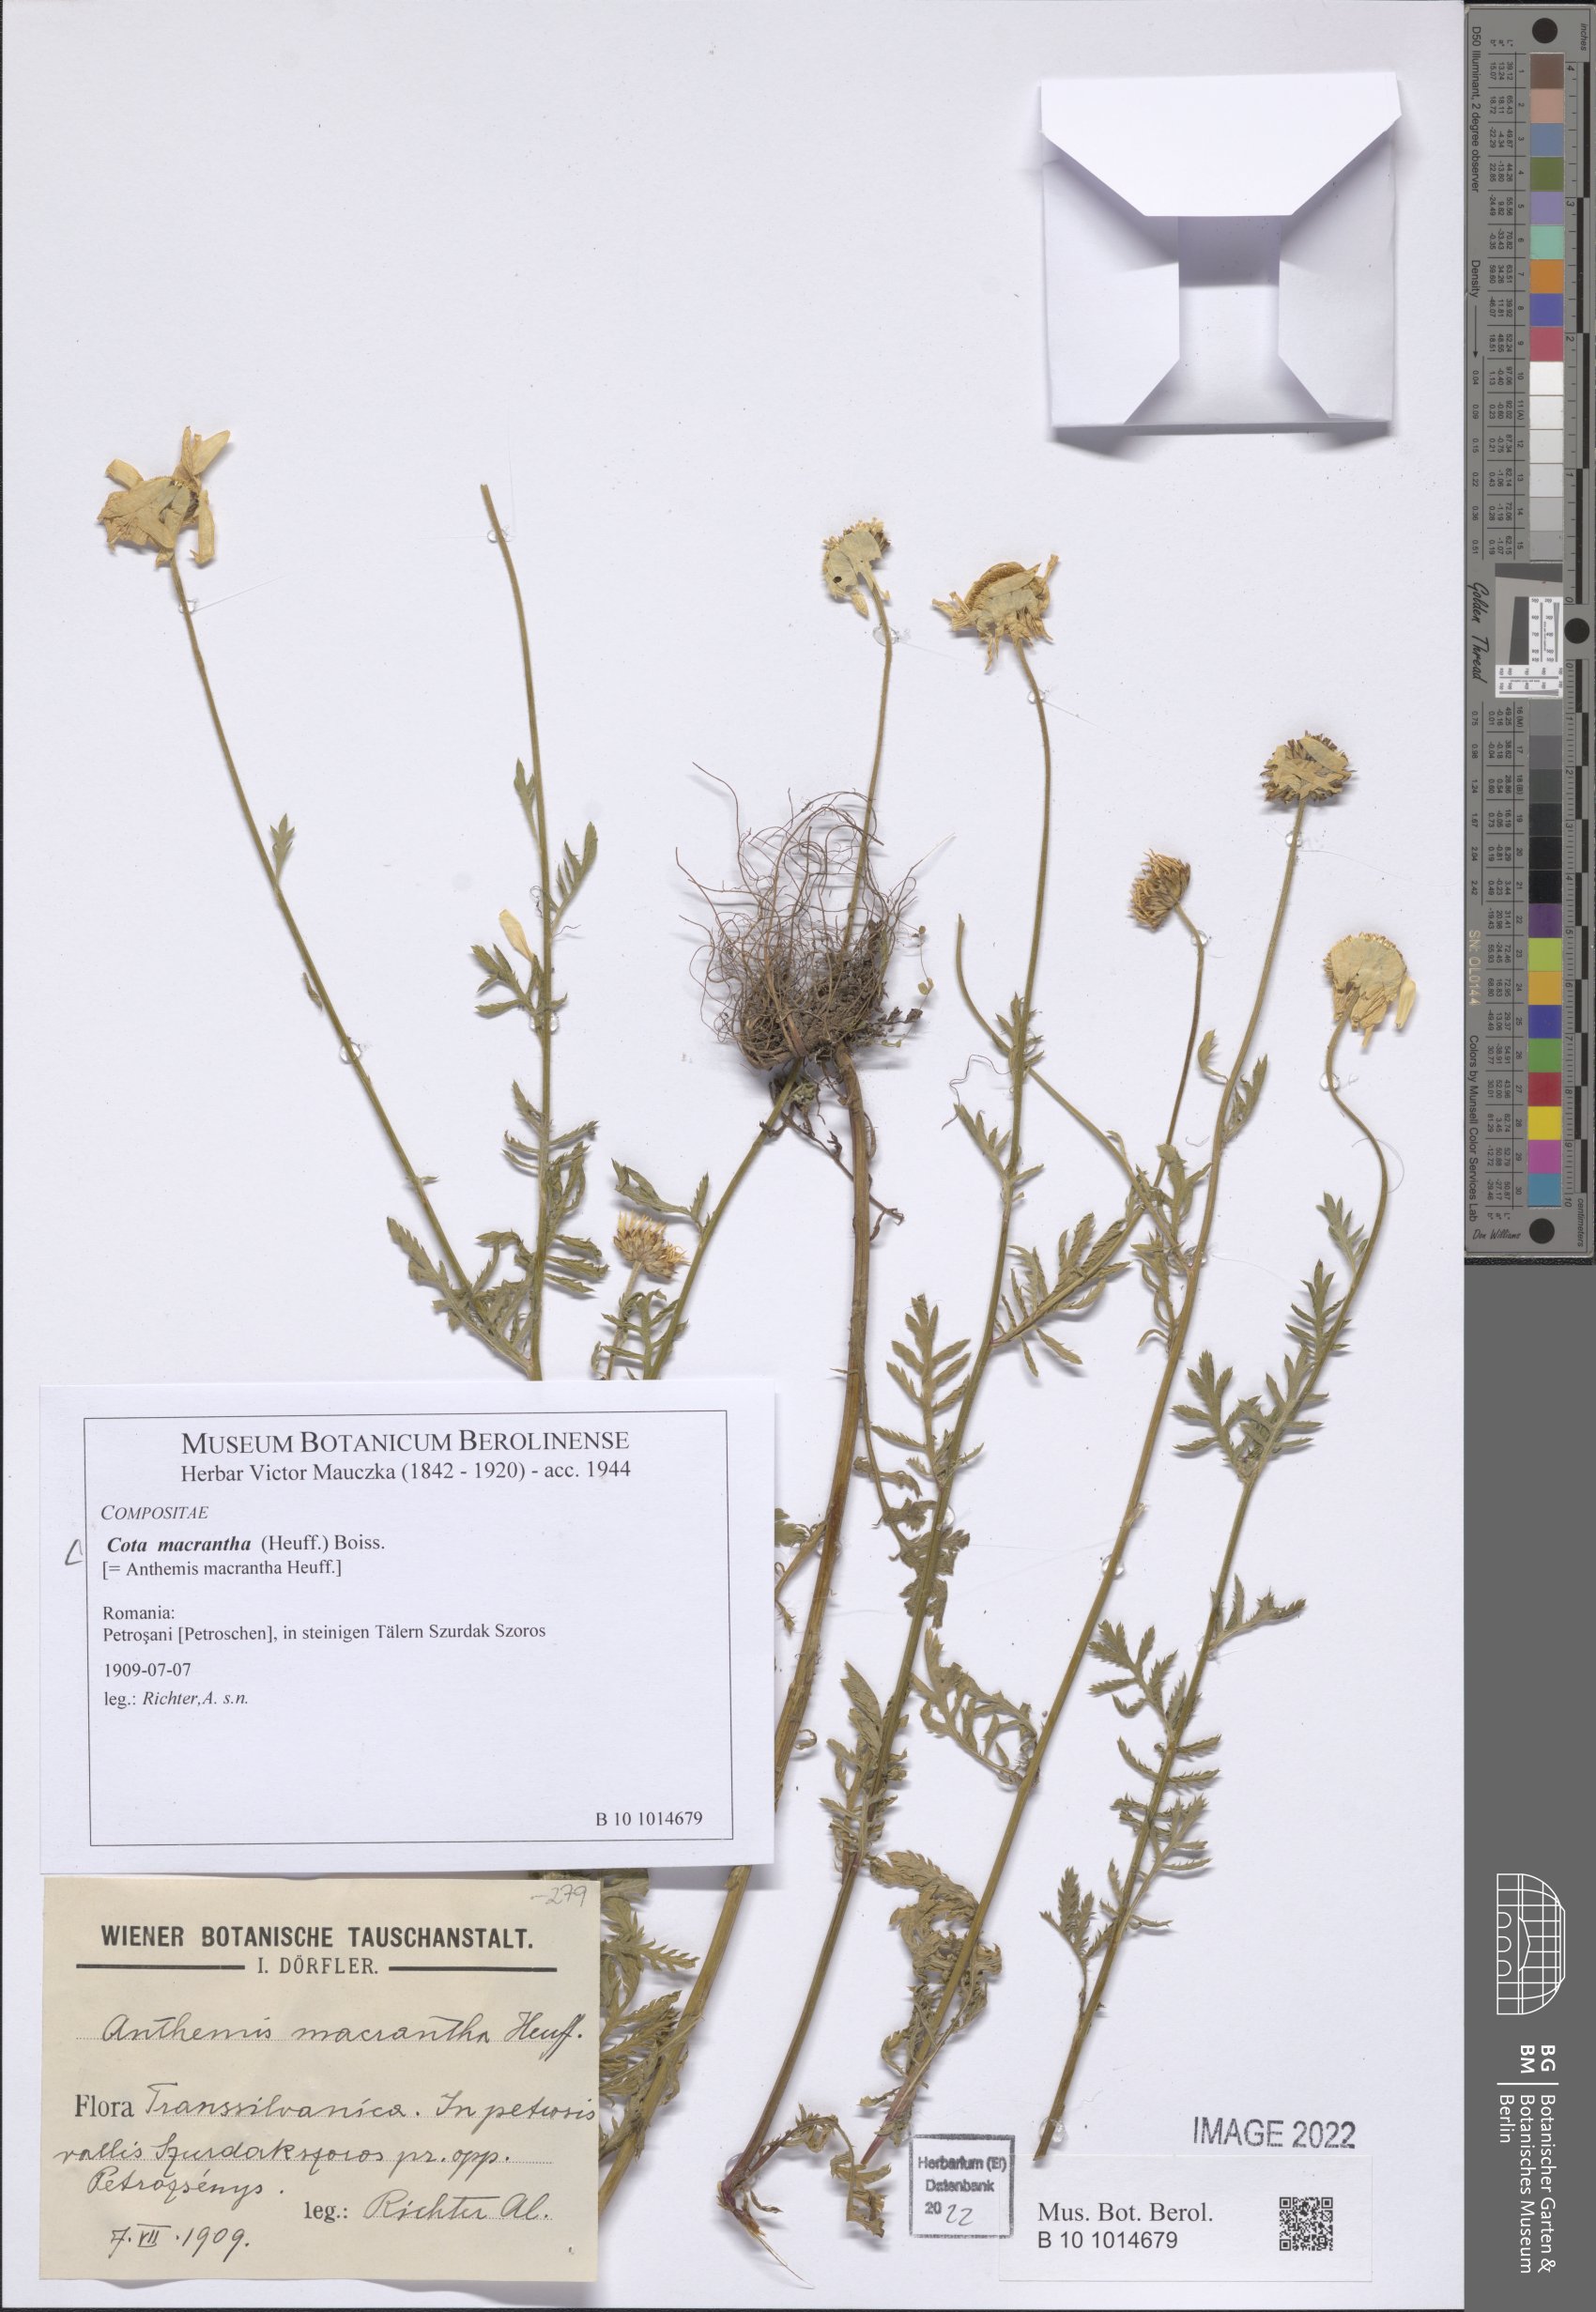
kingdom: Plantae
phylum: Tracheophyta
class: Magnoliopsida
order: Asterales
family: Asteraceae
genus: Cota
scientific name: Cota macrantha
